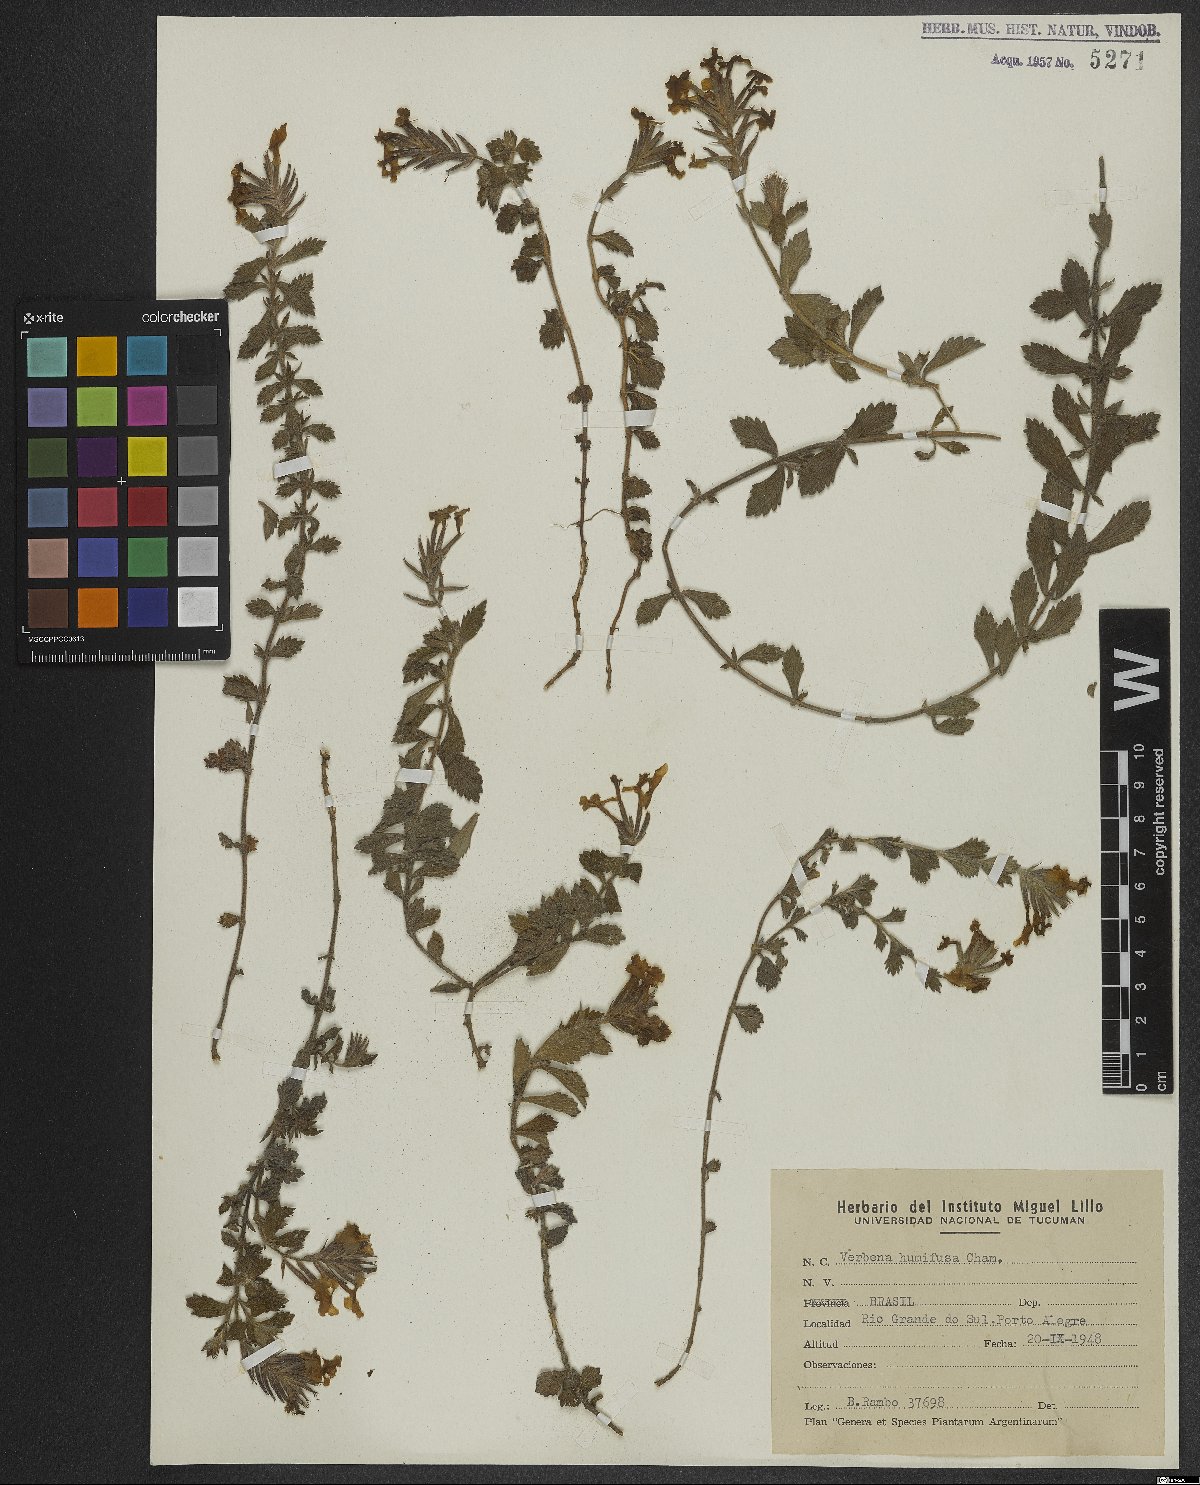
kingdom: Plantae
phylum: Tracheophyta
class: Magnoliopsida
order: Lamiales
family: Verbenaceae
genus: Verbena
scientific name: Verbena humifusa
